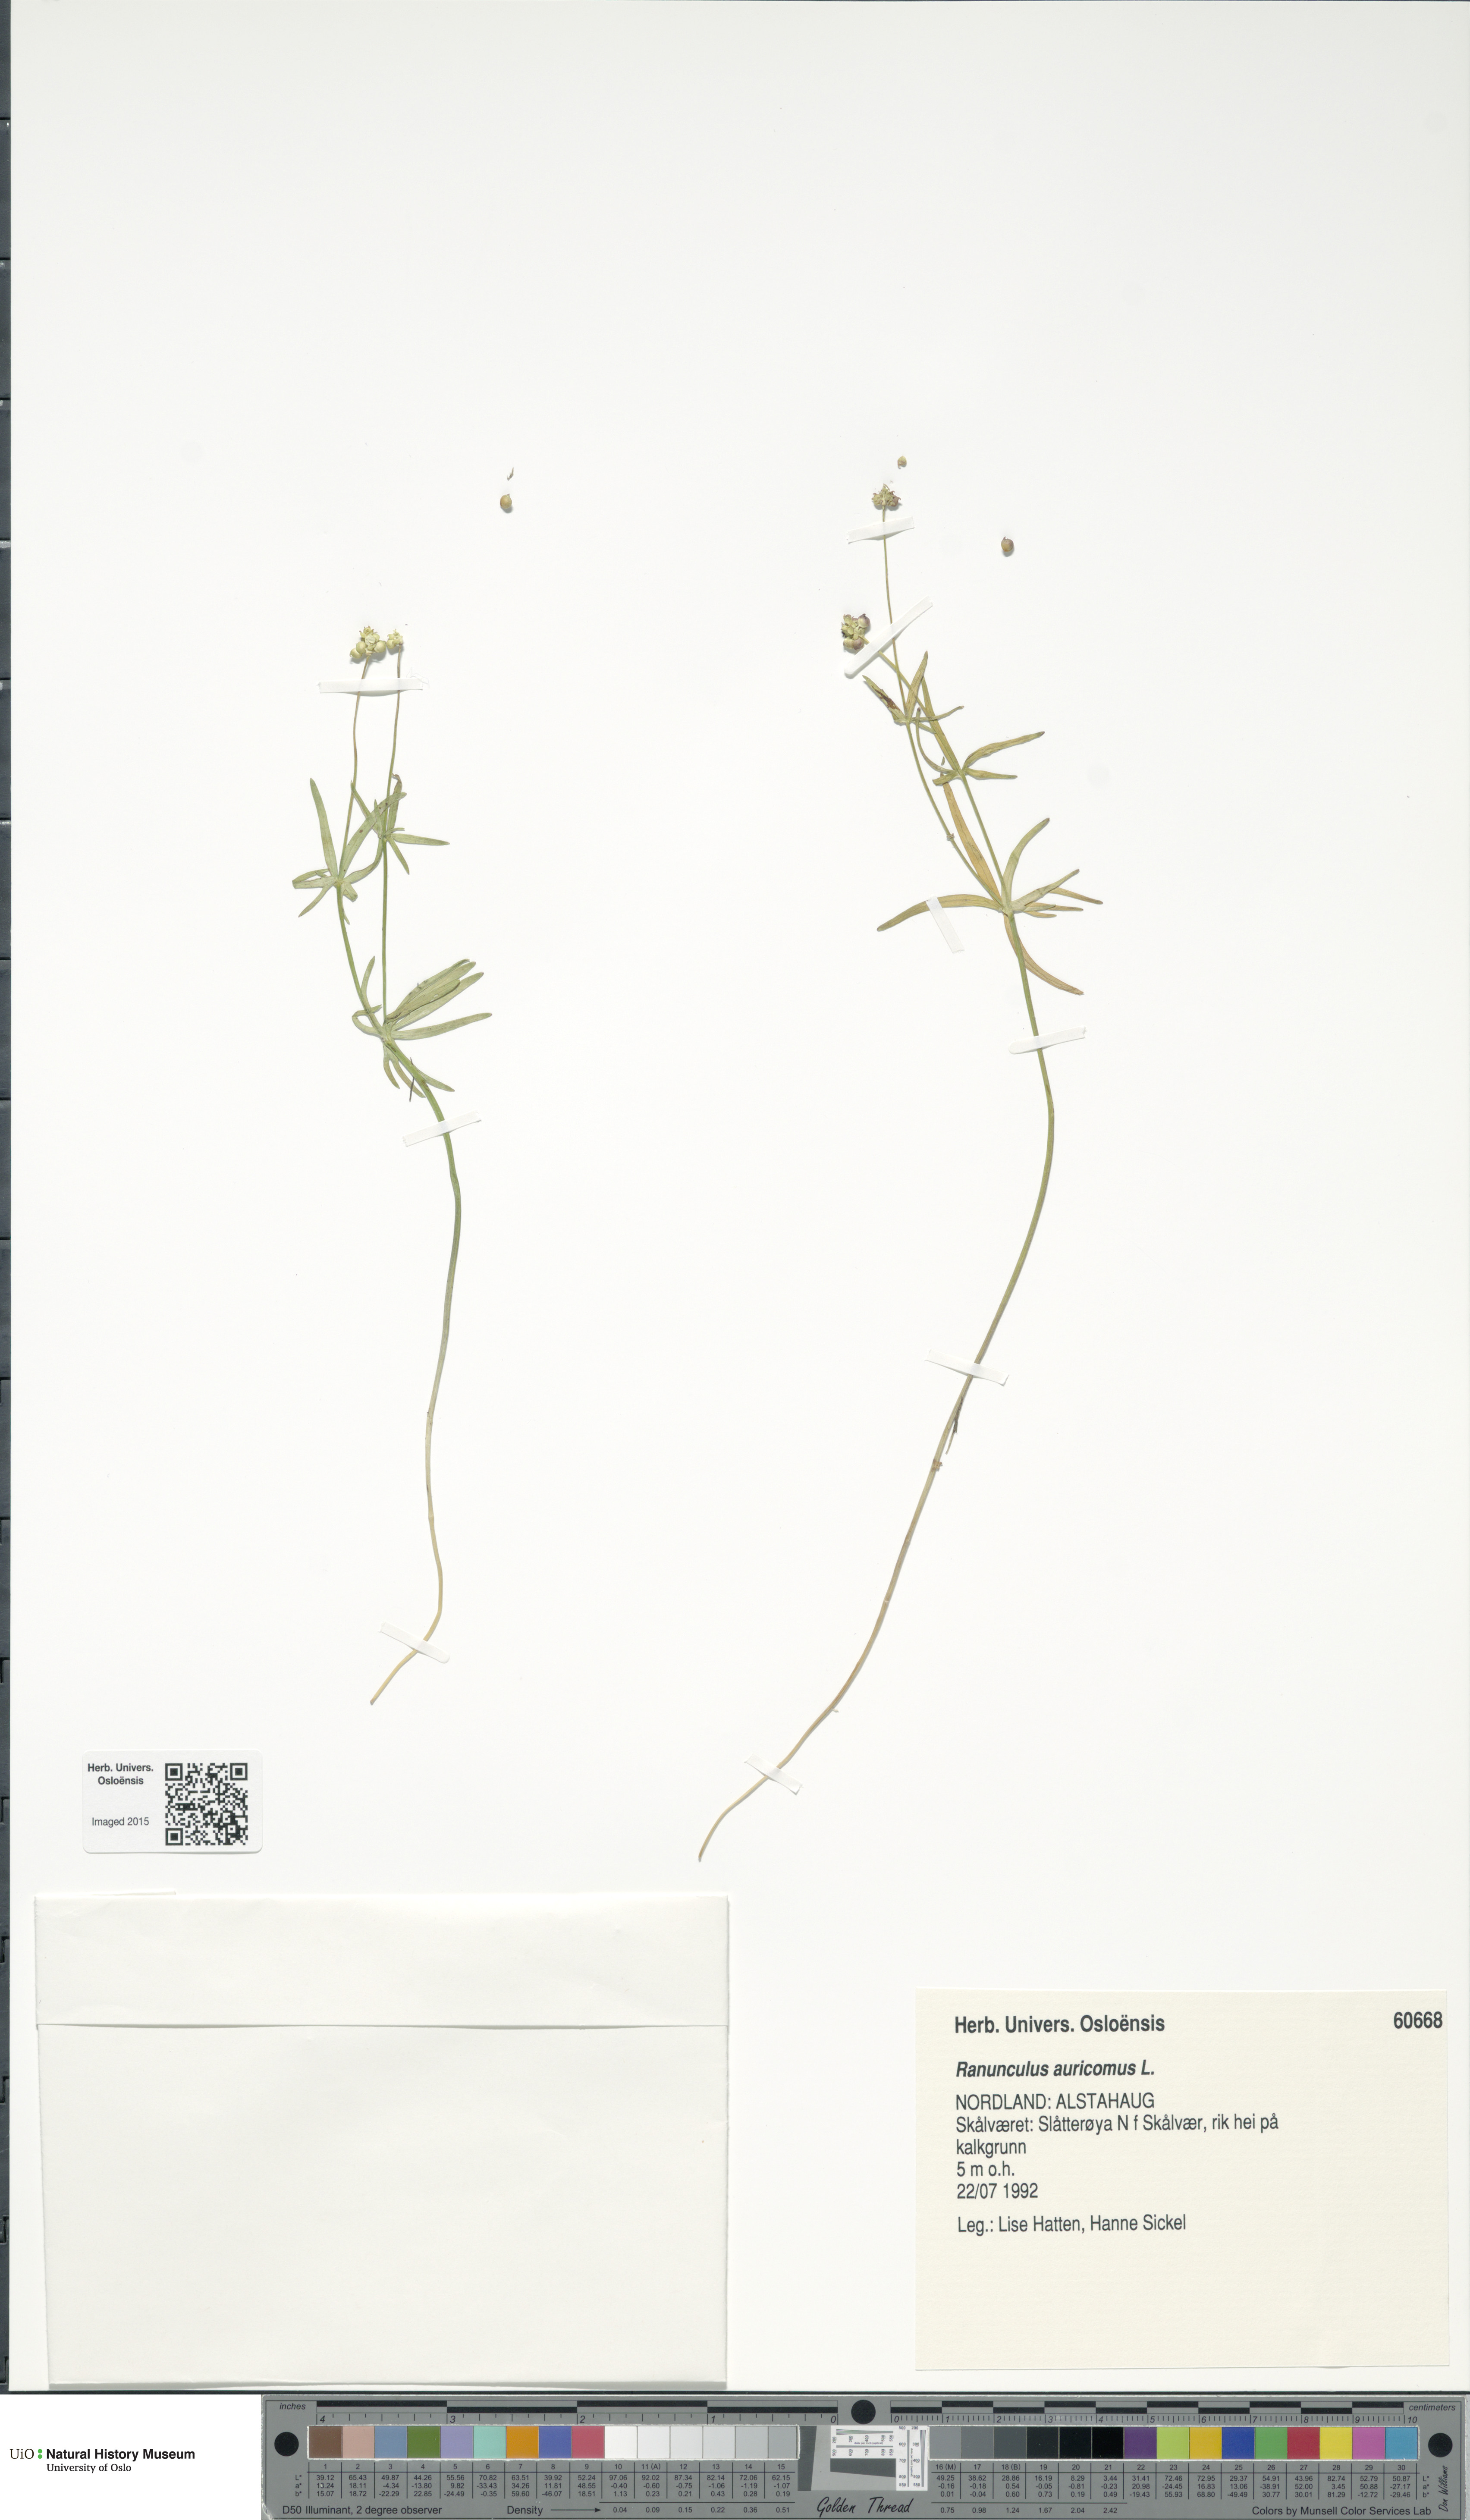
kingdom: Plantae
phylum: Tracheophyta
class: Magnoliopsida
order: Ranunculales
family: Ranunculaceae
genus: Ranunculus
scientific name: Ranunculus auricomus
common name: Goldilocks buttercup
